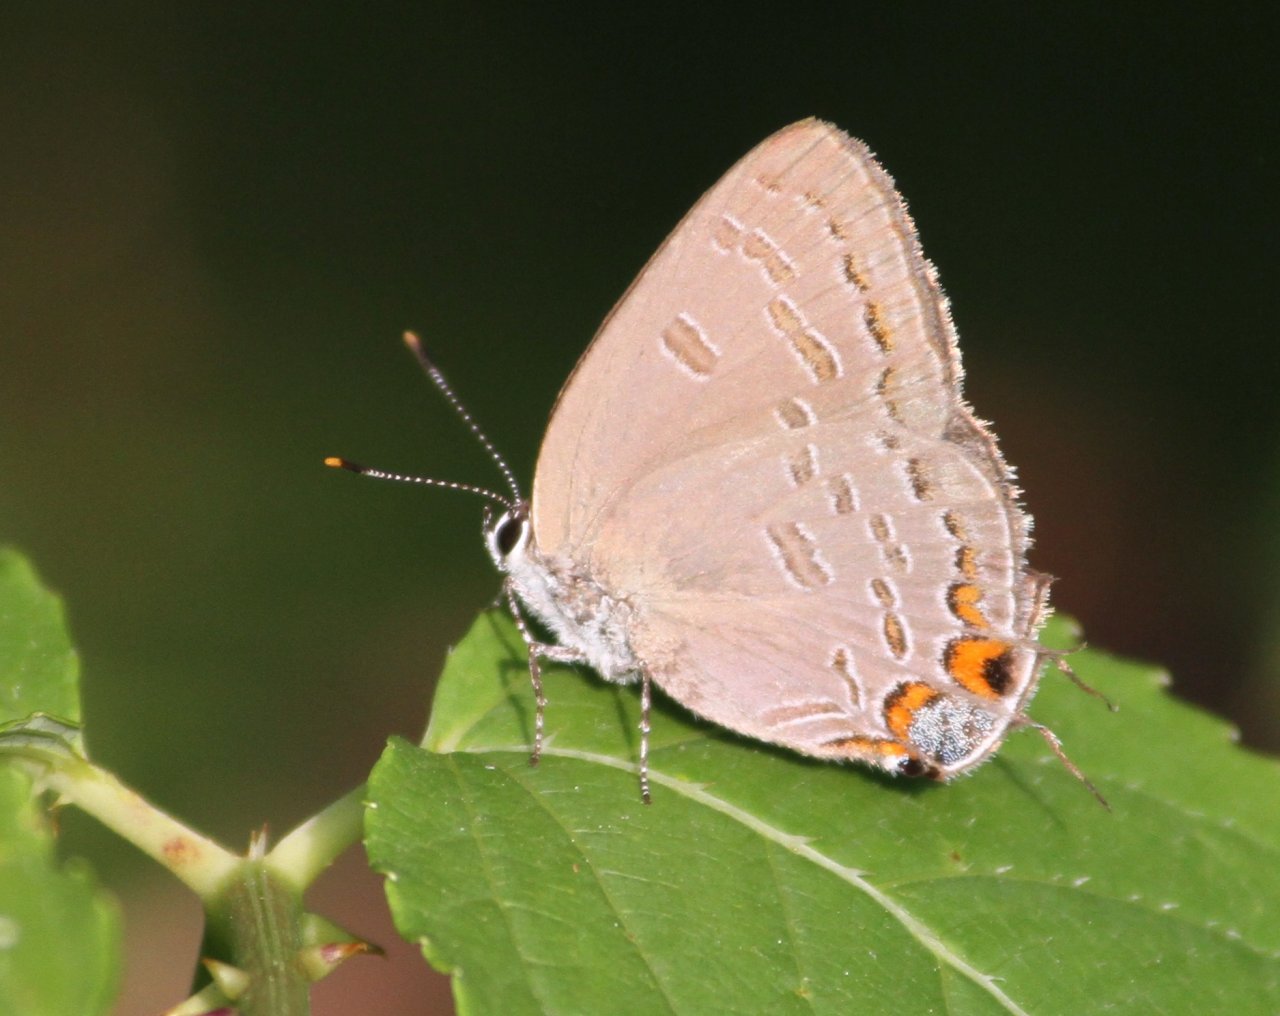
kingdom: Animalia
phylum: Arthropoda
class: Insecta
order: Lepidoptera
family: Lycaenidae
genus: Strymon
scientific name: Strymon kingi
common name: King's Hairstreak
